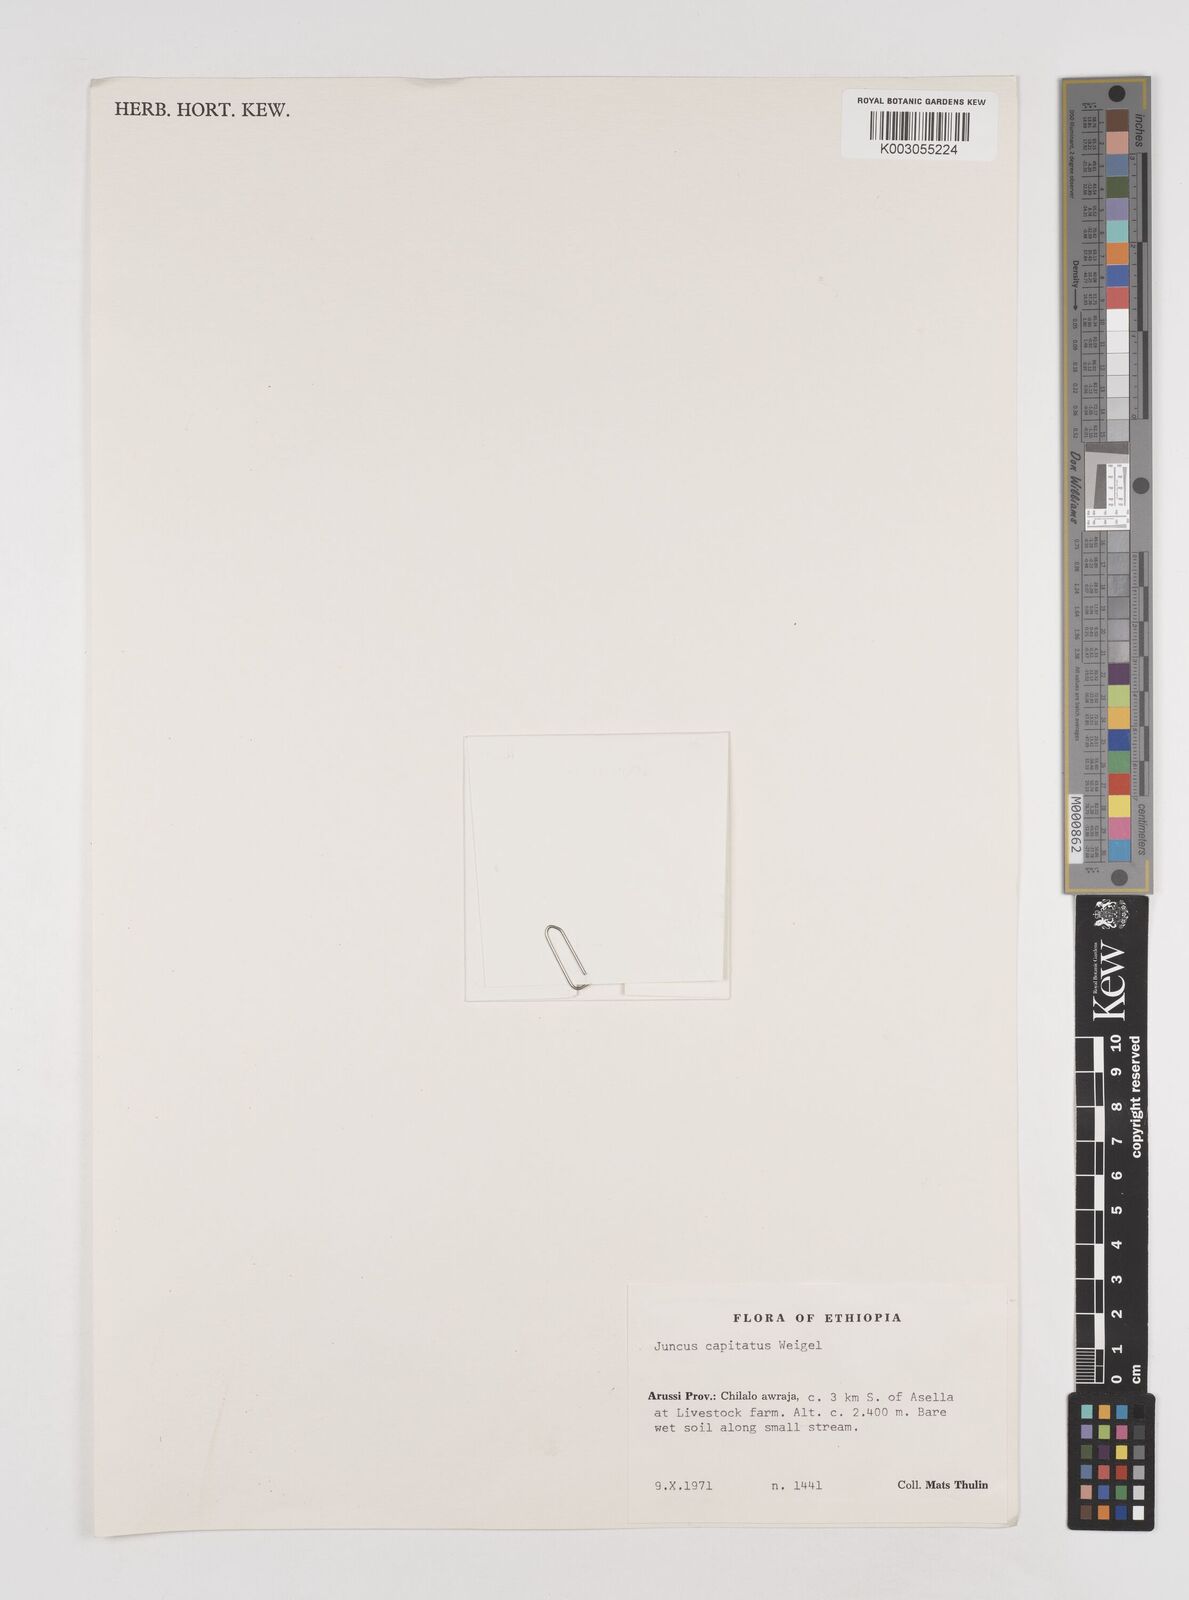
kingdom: Plantae
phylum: Tracheophyta
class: Liliopsida
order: Poales
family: Juncaceae
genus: Juncus
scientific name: Juncus capitatus
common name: Dwarf rush
